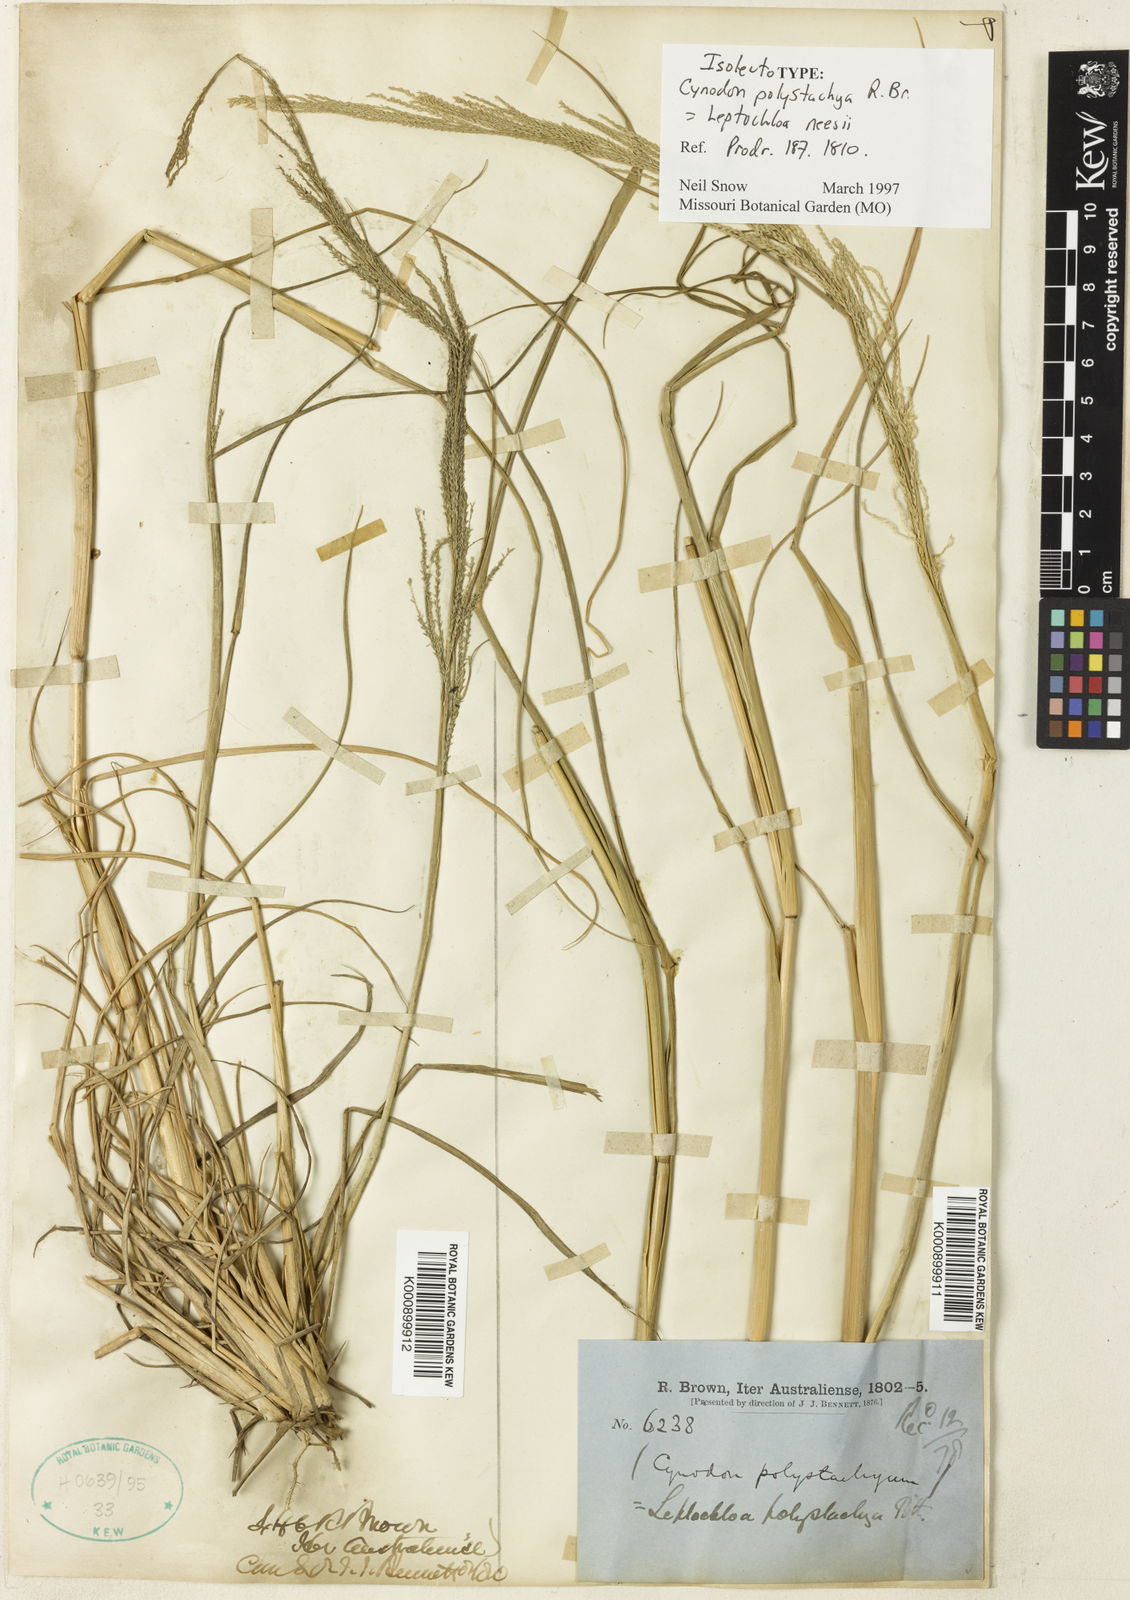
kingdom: Plantae
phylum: Tracheophyta
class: Liliopsida
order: Poales
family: Poaceae
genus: Dinebra
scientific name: Dinebra polystachyos
